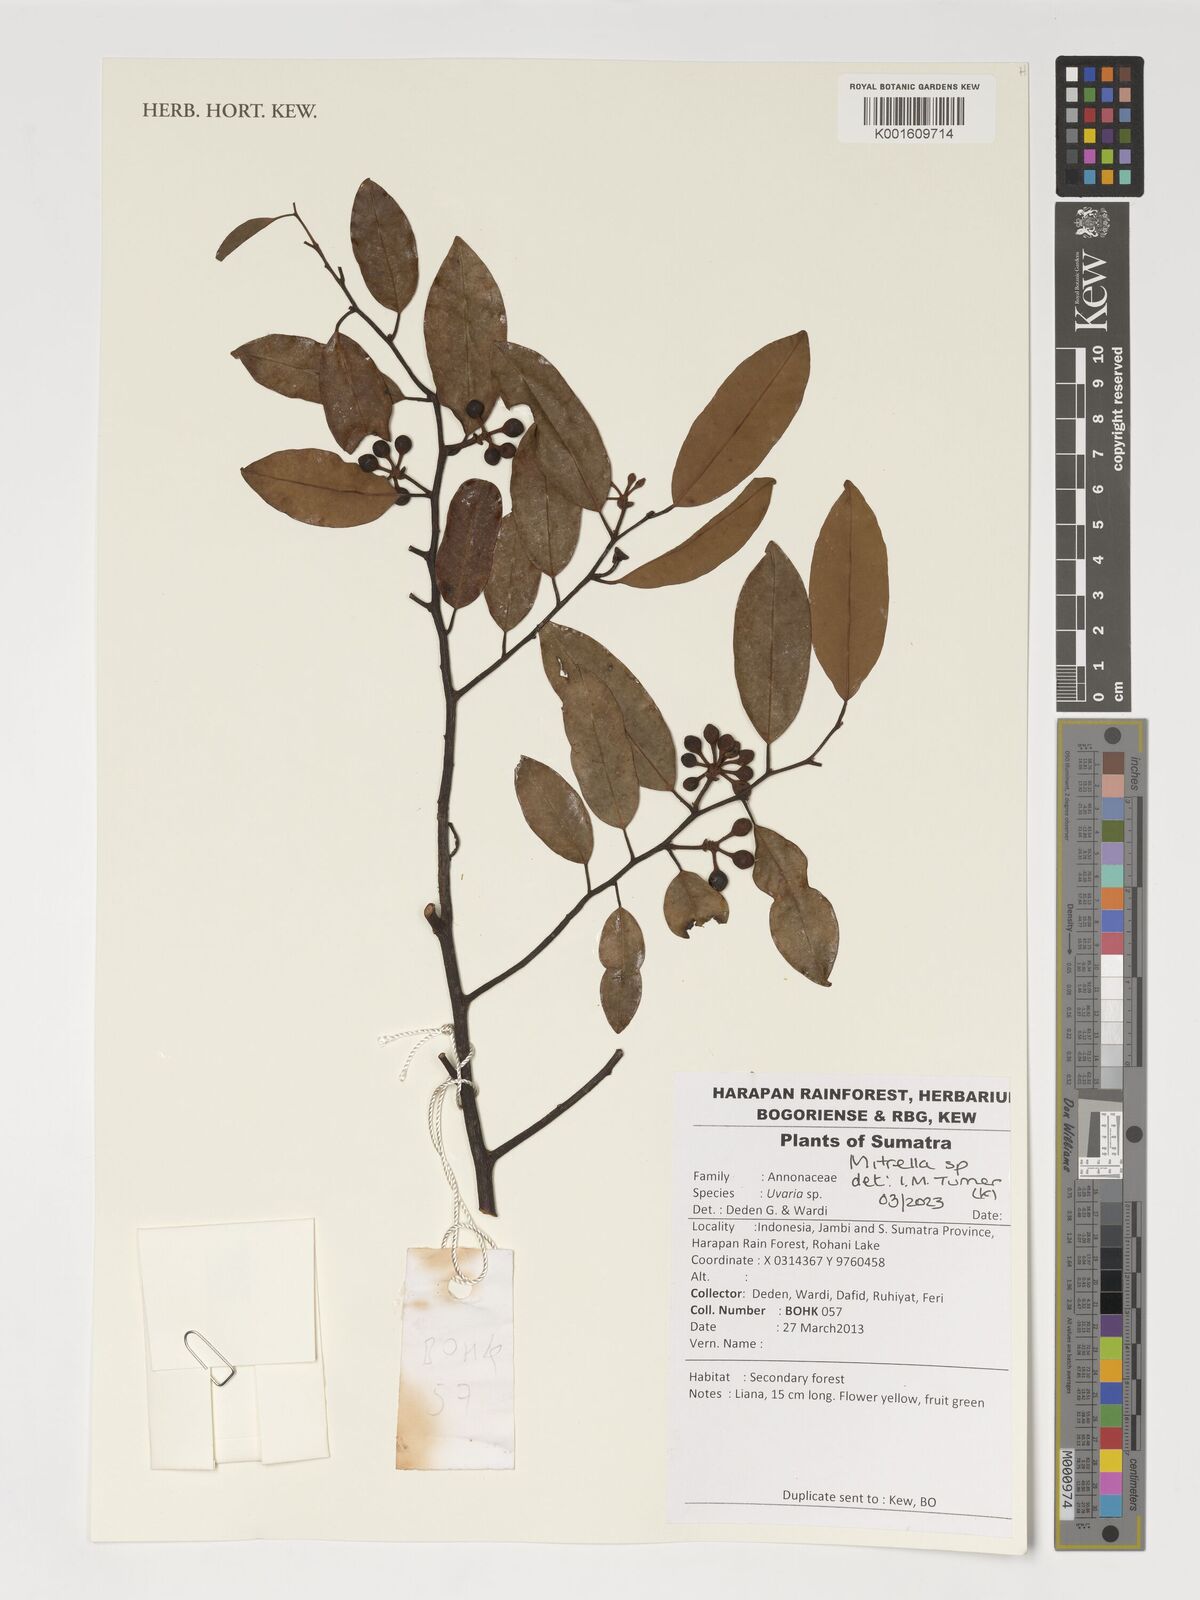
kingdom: Plantae
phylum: Tracheophyta
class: Magnoliopsida
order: Magnoliales
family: Annonaceae
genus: Mitrella
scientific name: Mitrella
